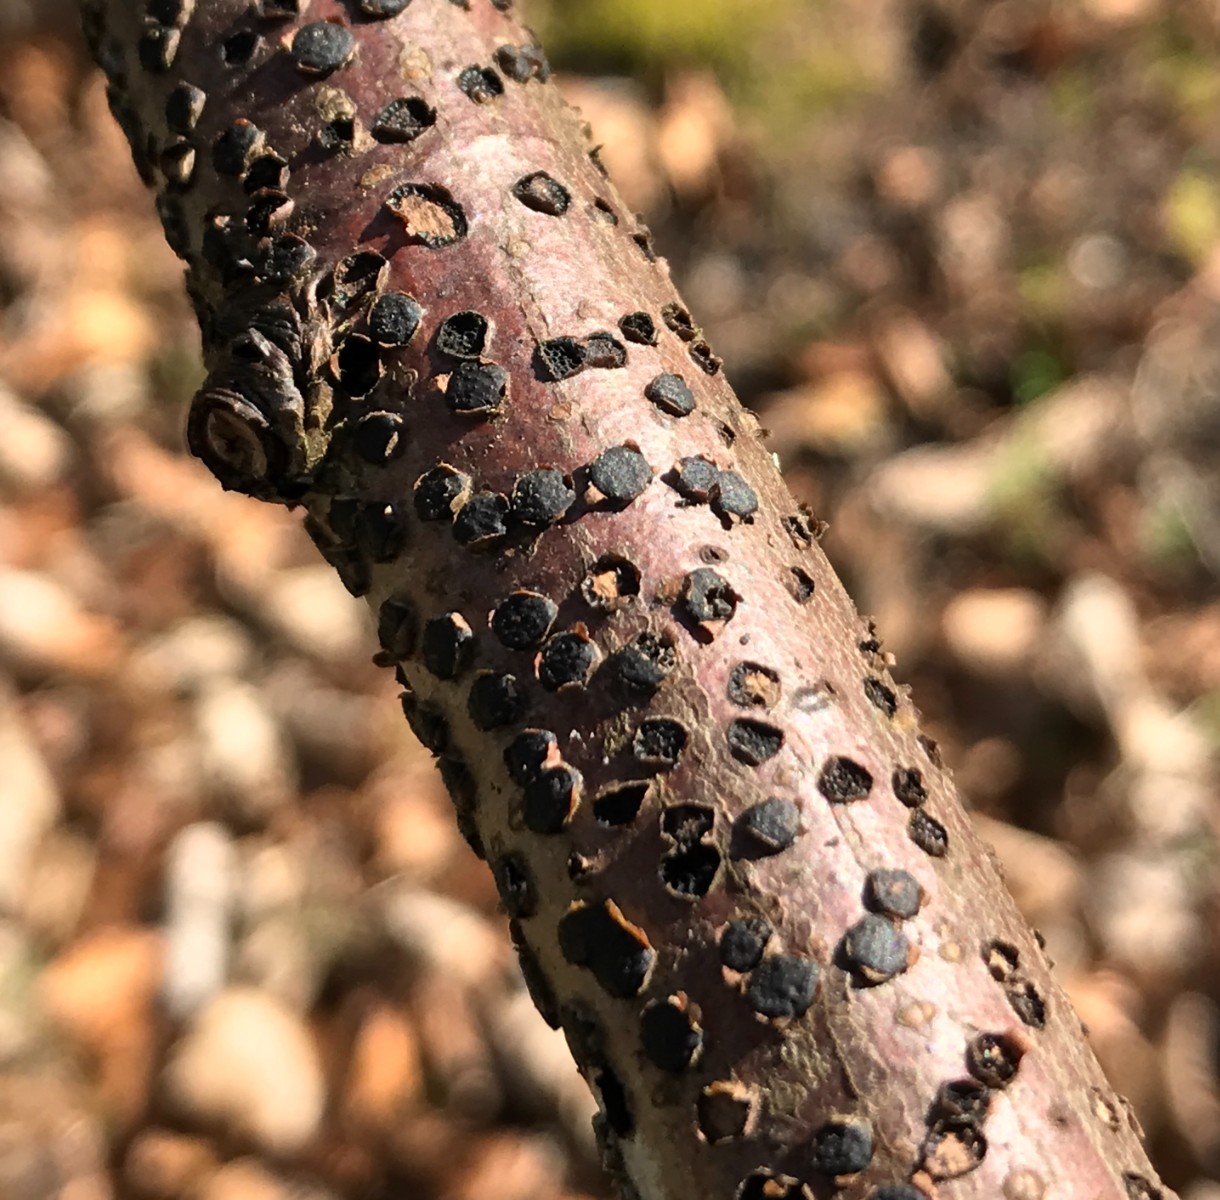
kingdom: Fungi
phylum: Ascomycota
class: Sordariomycetes
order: Xylariales
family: Diatrypaceae
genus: Diatrype
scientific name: Diatrype disciformis
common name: kant-kulskorpe
